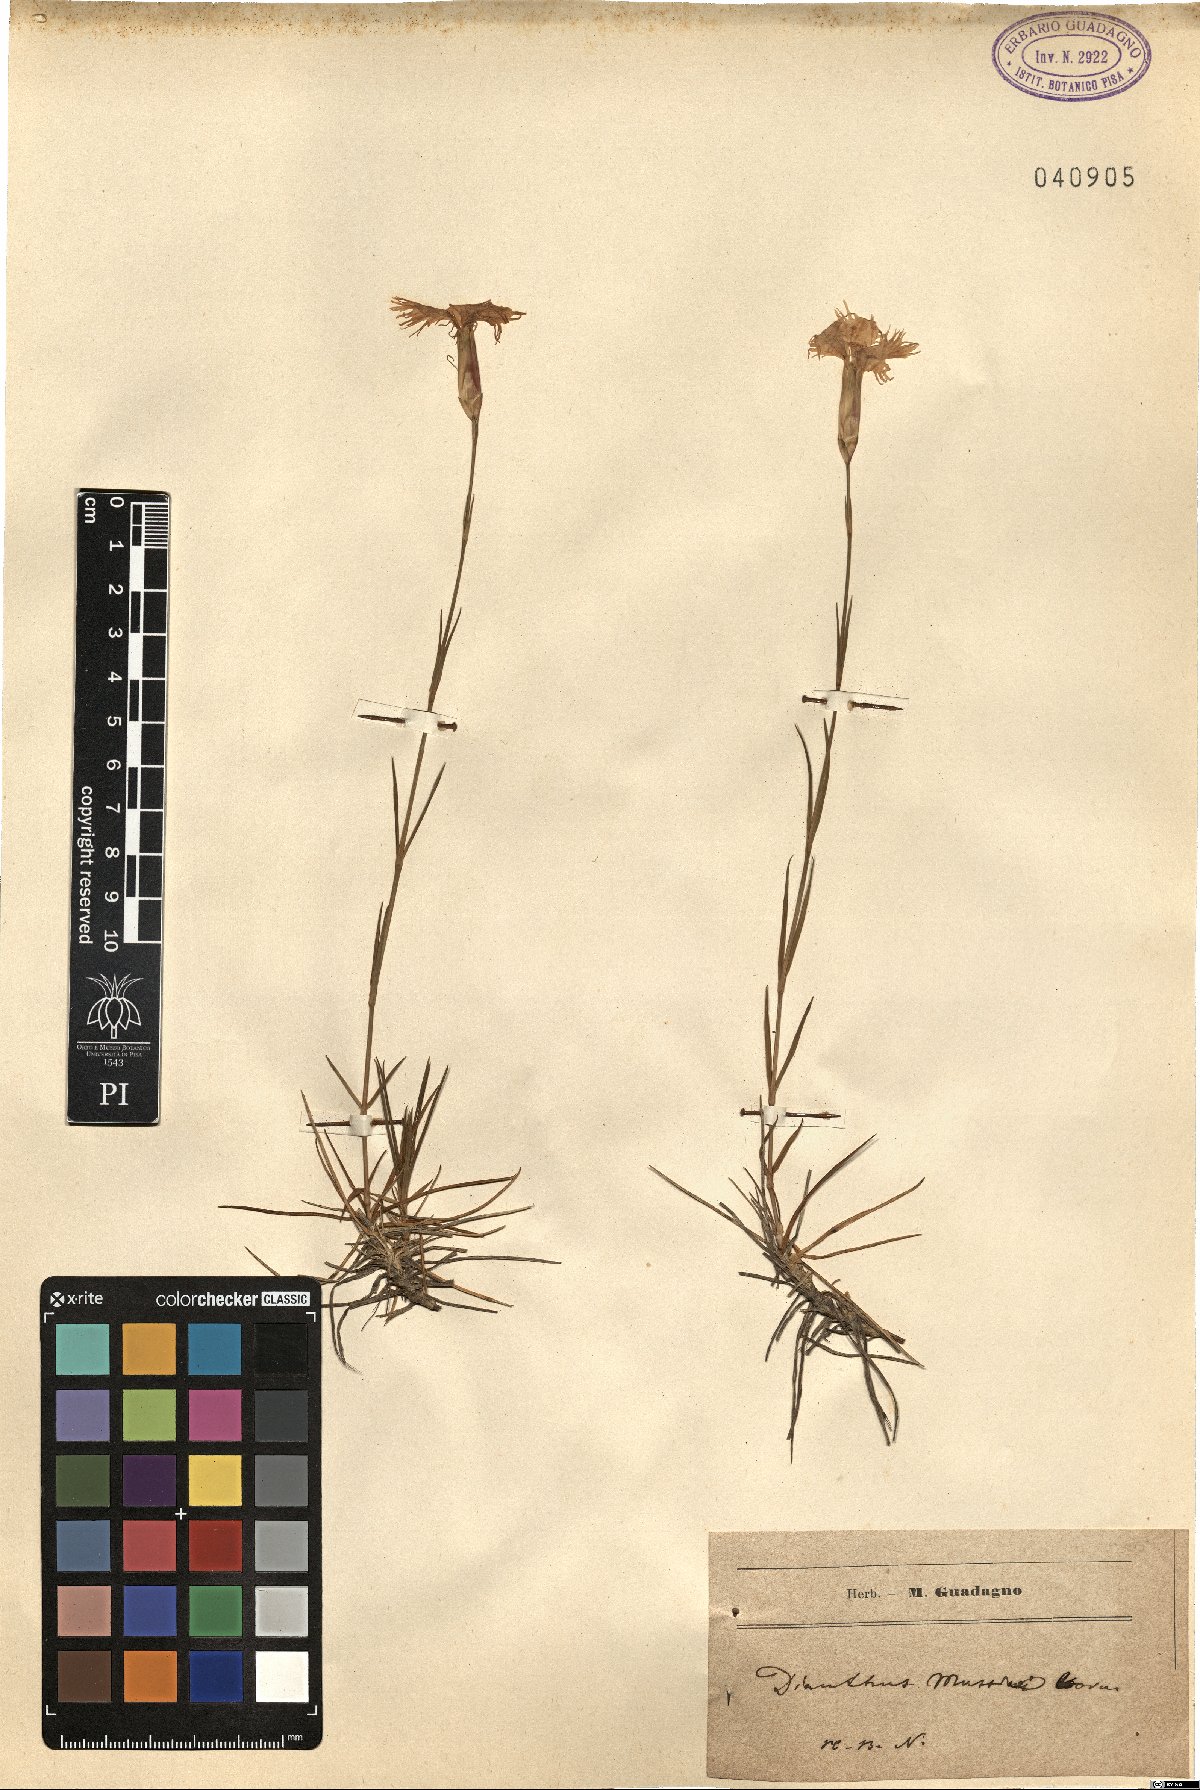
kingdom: Plantae
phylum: Tracheophyta
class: Magnoliopsida
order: Caryophyllales
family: Caryophyllaceae
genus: Dianthus
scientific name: Dianthus squarrosus
